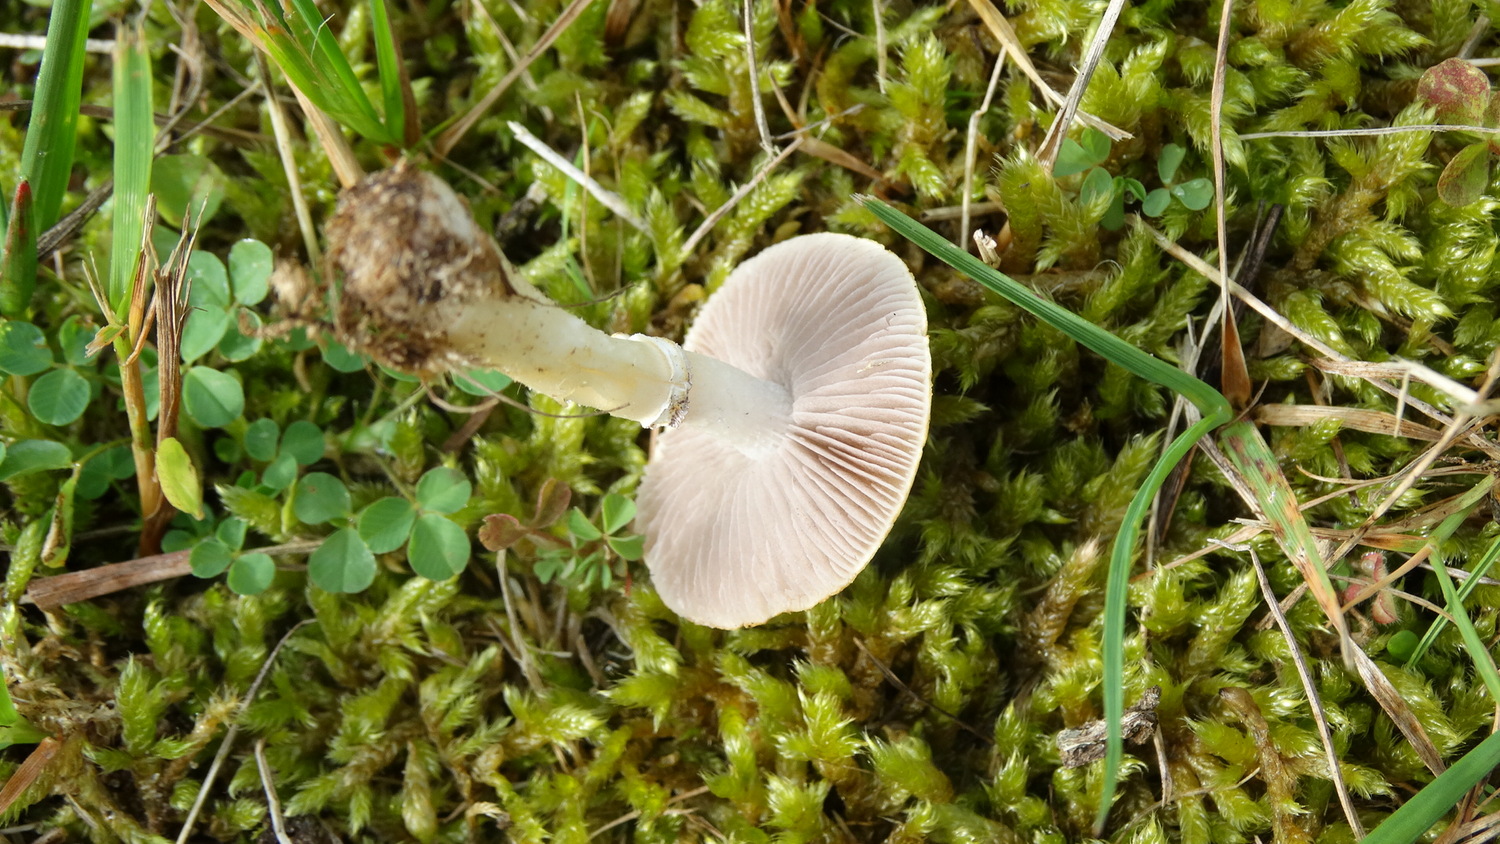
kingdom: Fungi
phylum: Basidiomycota
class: Agaricomycetes
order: Agaricales
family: Hymenogastraceae
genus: Psilocybe
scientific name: Psilocybe coronilla
